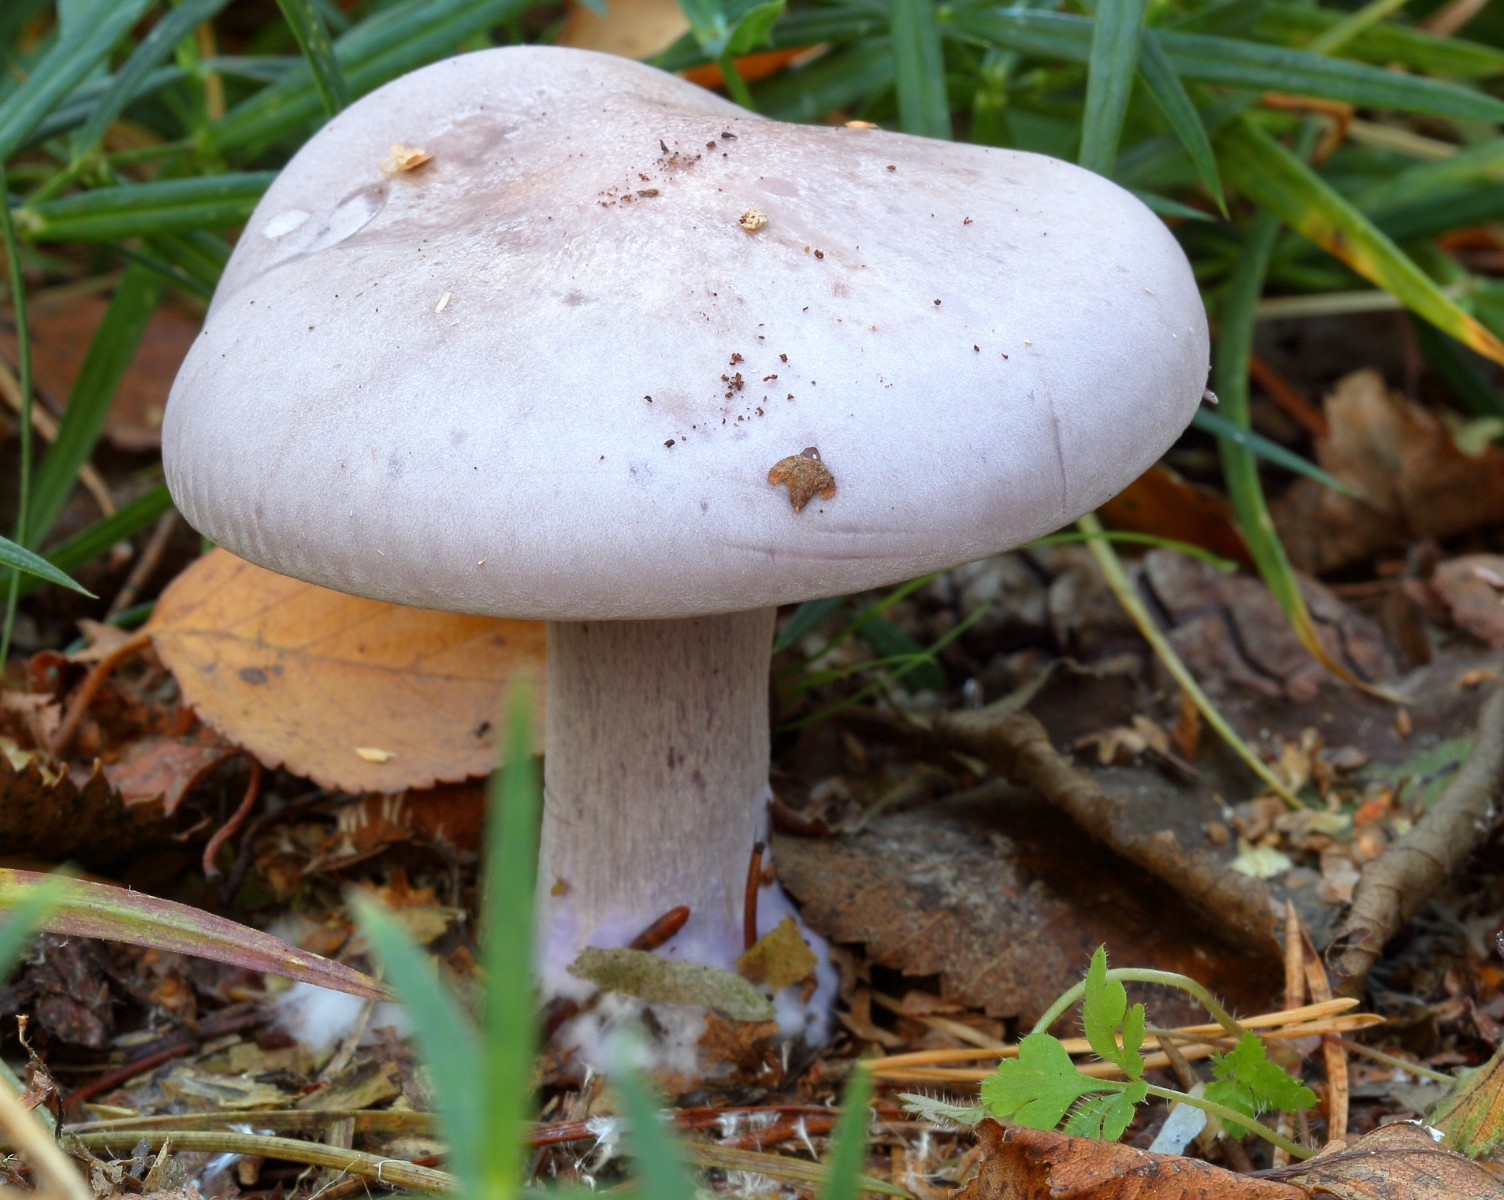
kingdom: Fungi
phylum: Basidiomycota
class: Agaricomycetes
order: Agaricales
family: Tricholomataceae
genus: Lepista
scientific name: Lepista nuda
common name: violet hekseringshat
